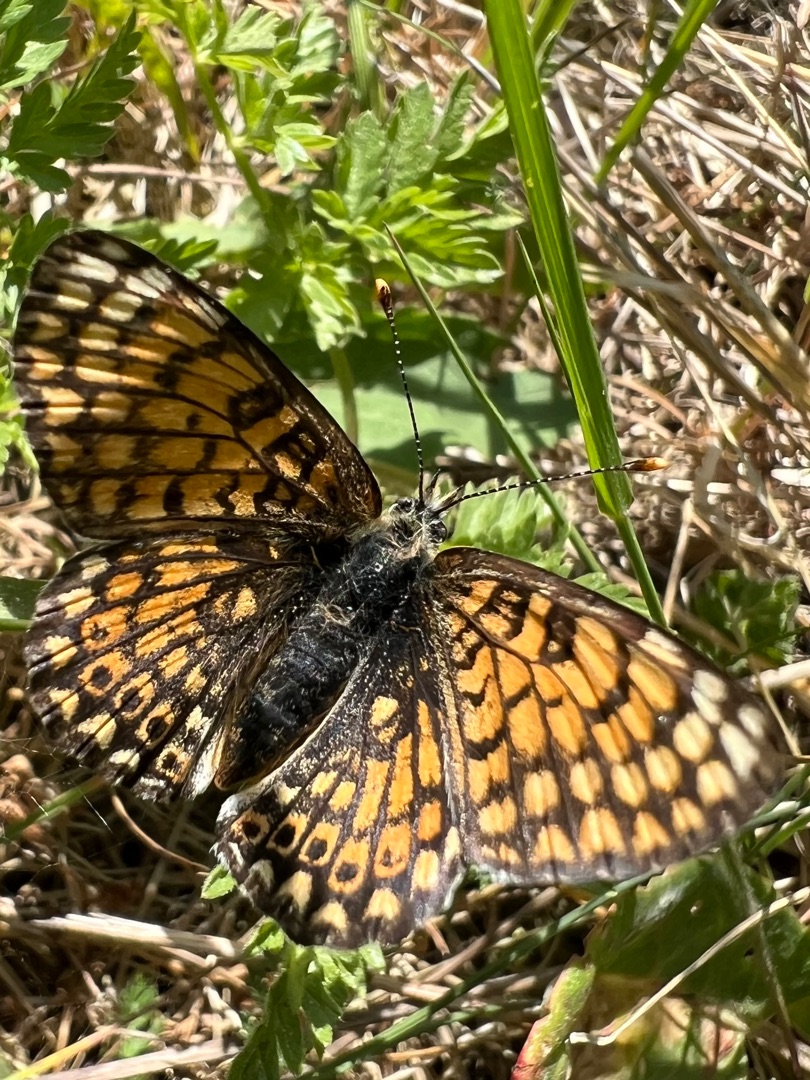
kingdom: Animalia
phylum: Arthropoda
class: Insecta
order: Lepidoptera
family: Nymphalidae
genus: Melitaea
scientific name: Melitaea cinxia
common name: Okkergul pletvinge
